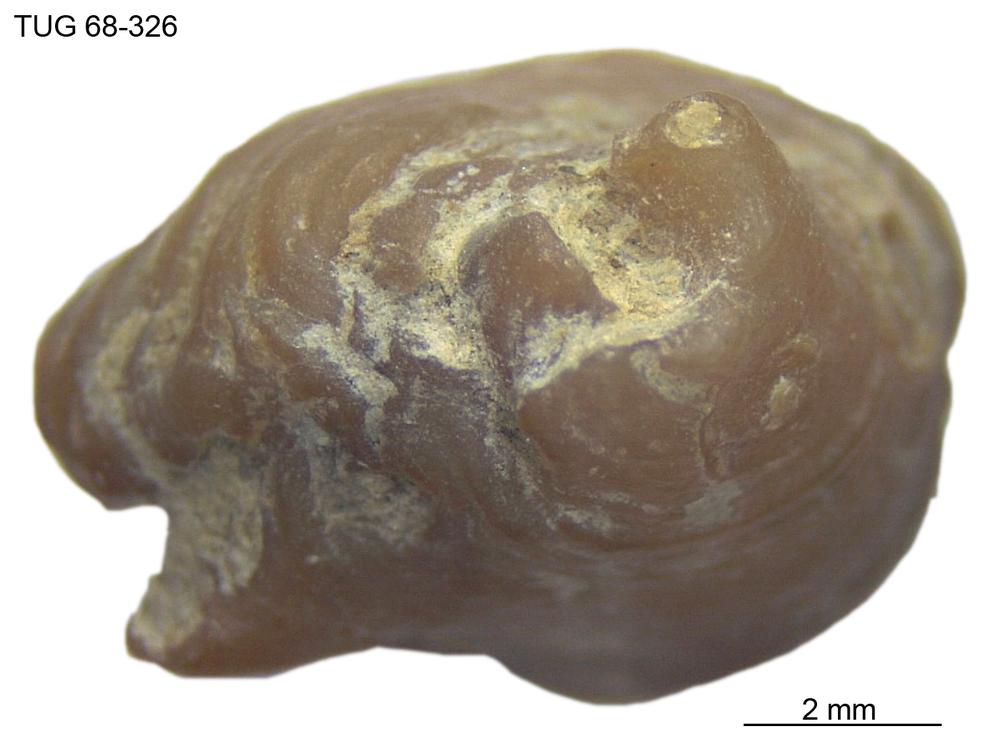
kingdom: Animalia
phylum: Mollusca
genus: Anticalyptraea
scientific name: Anticalyptraea westergaardi
